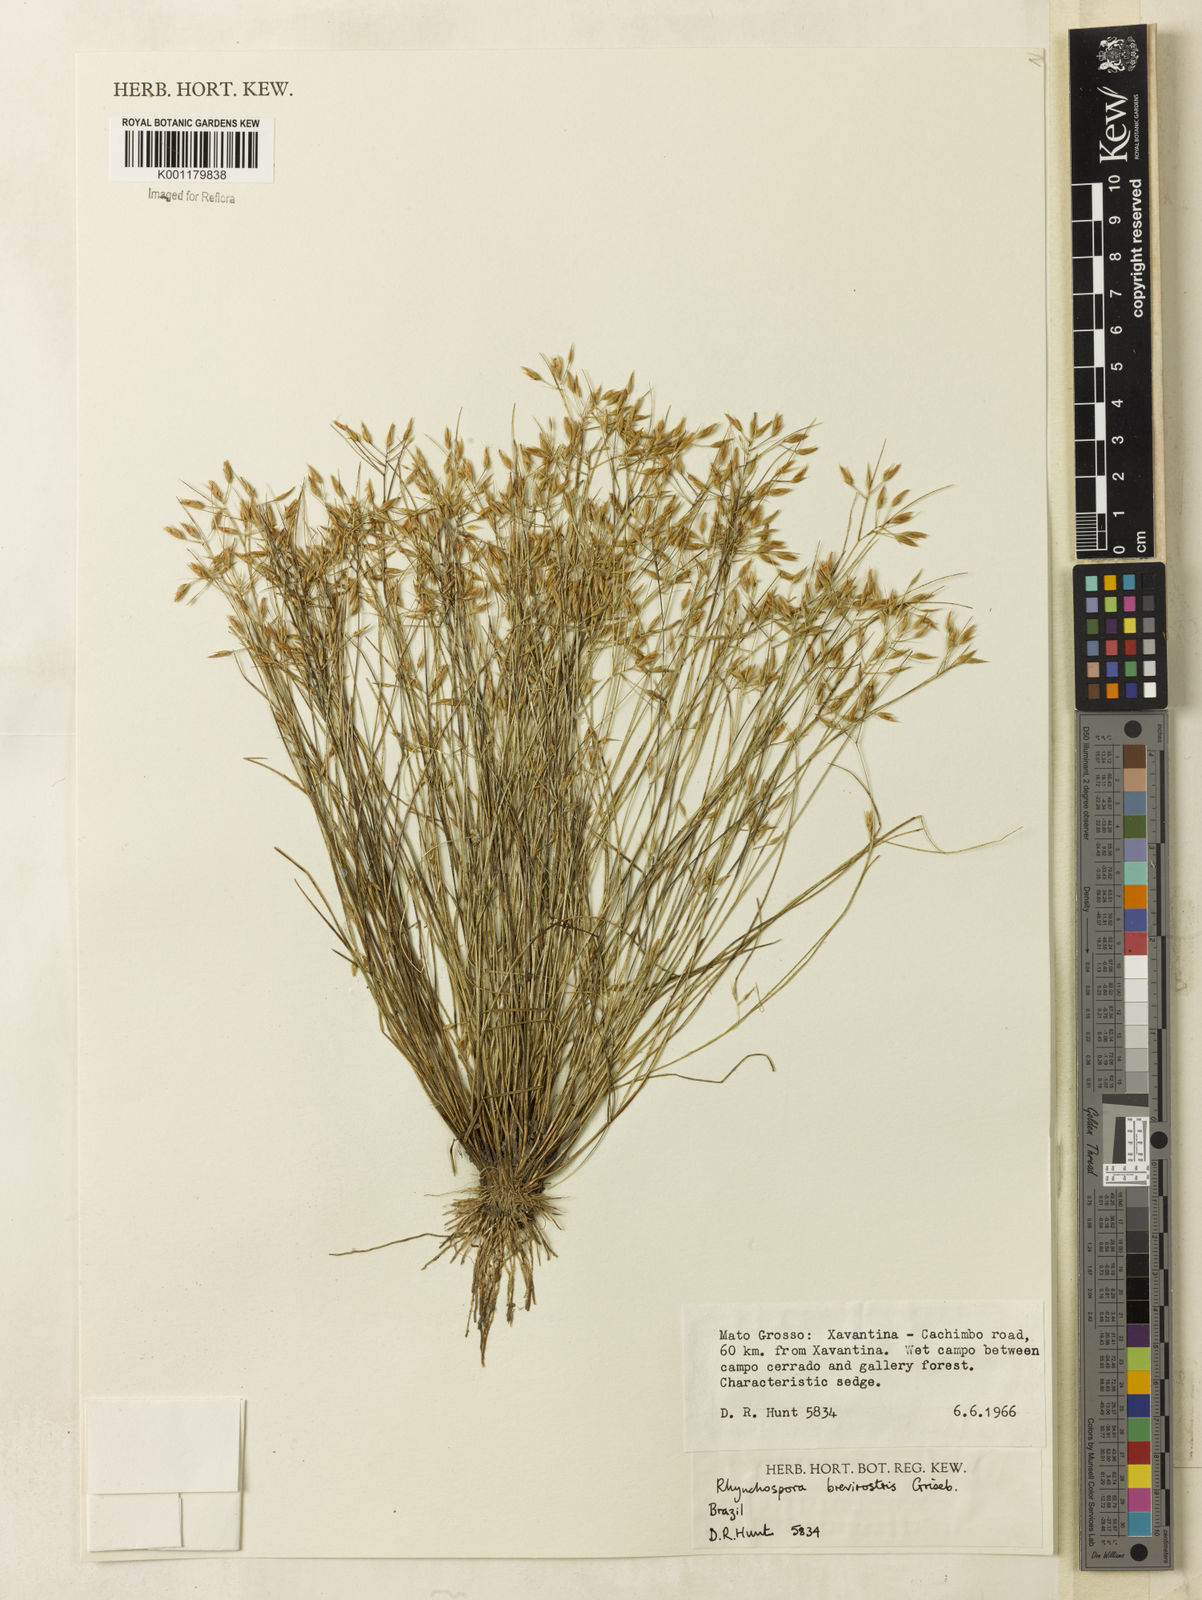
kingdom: Plantae
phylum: Tracheophyta
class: Liliopsida
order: Poales
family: Cyperaceae
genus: Rhynchospora
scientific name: Rhynchospora brevirostris
